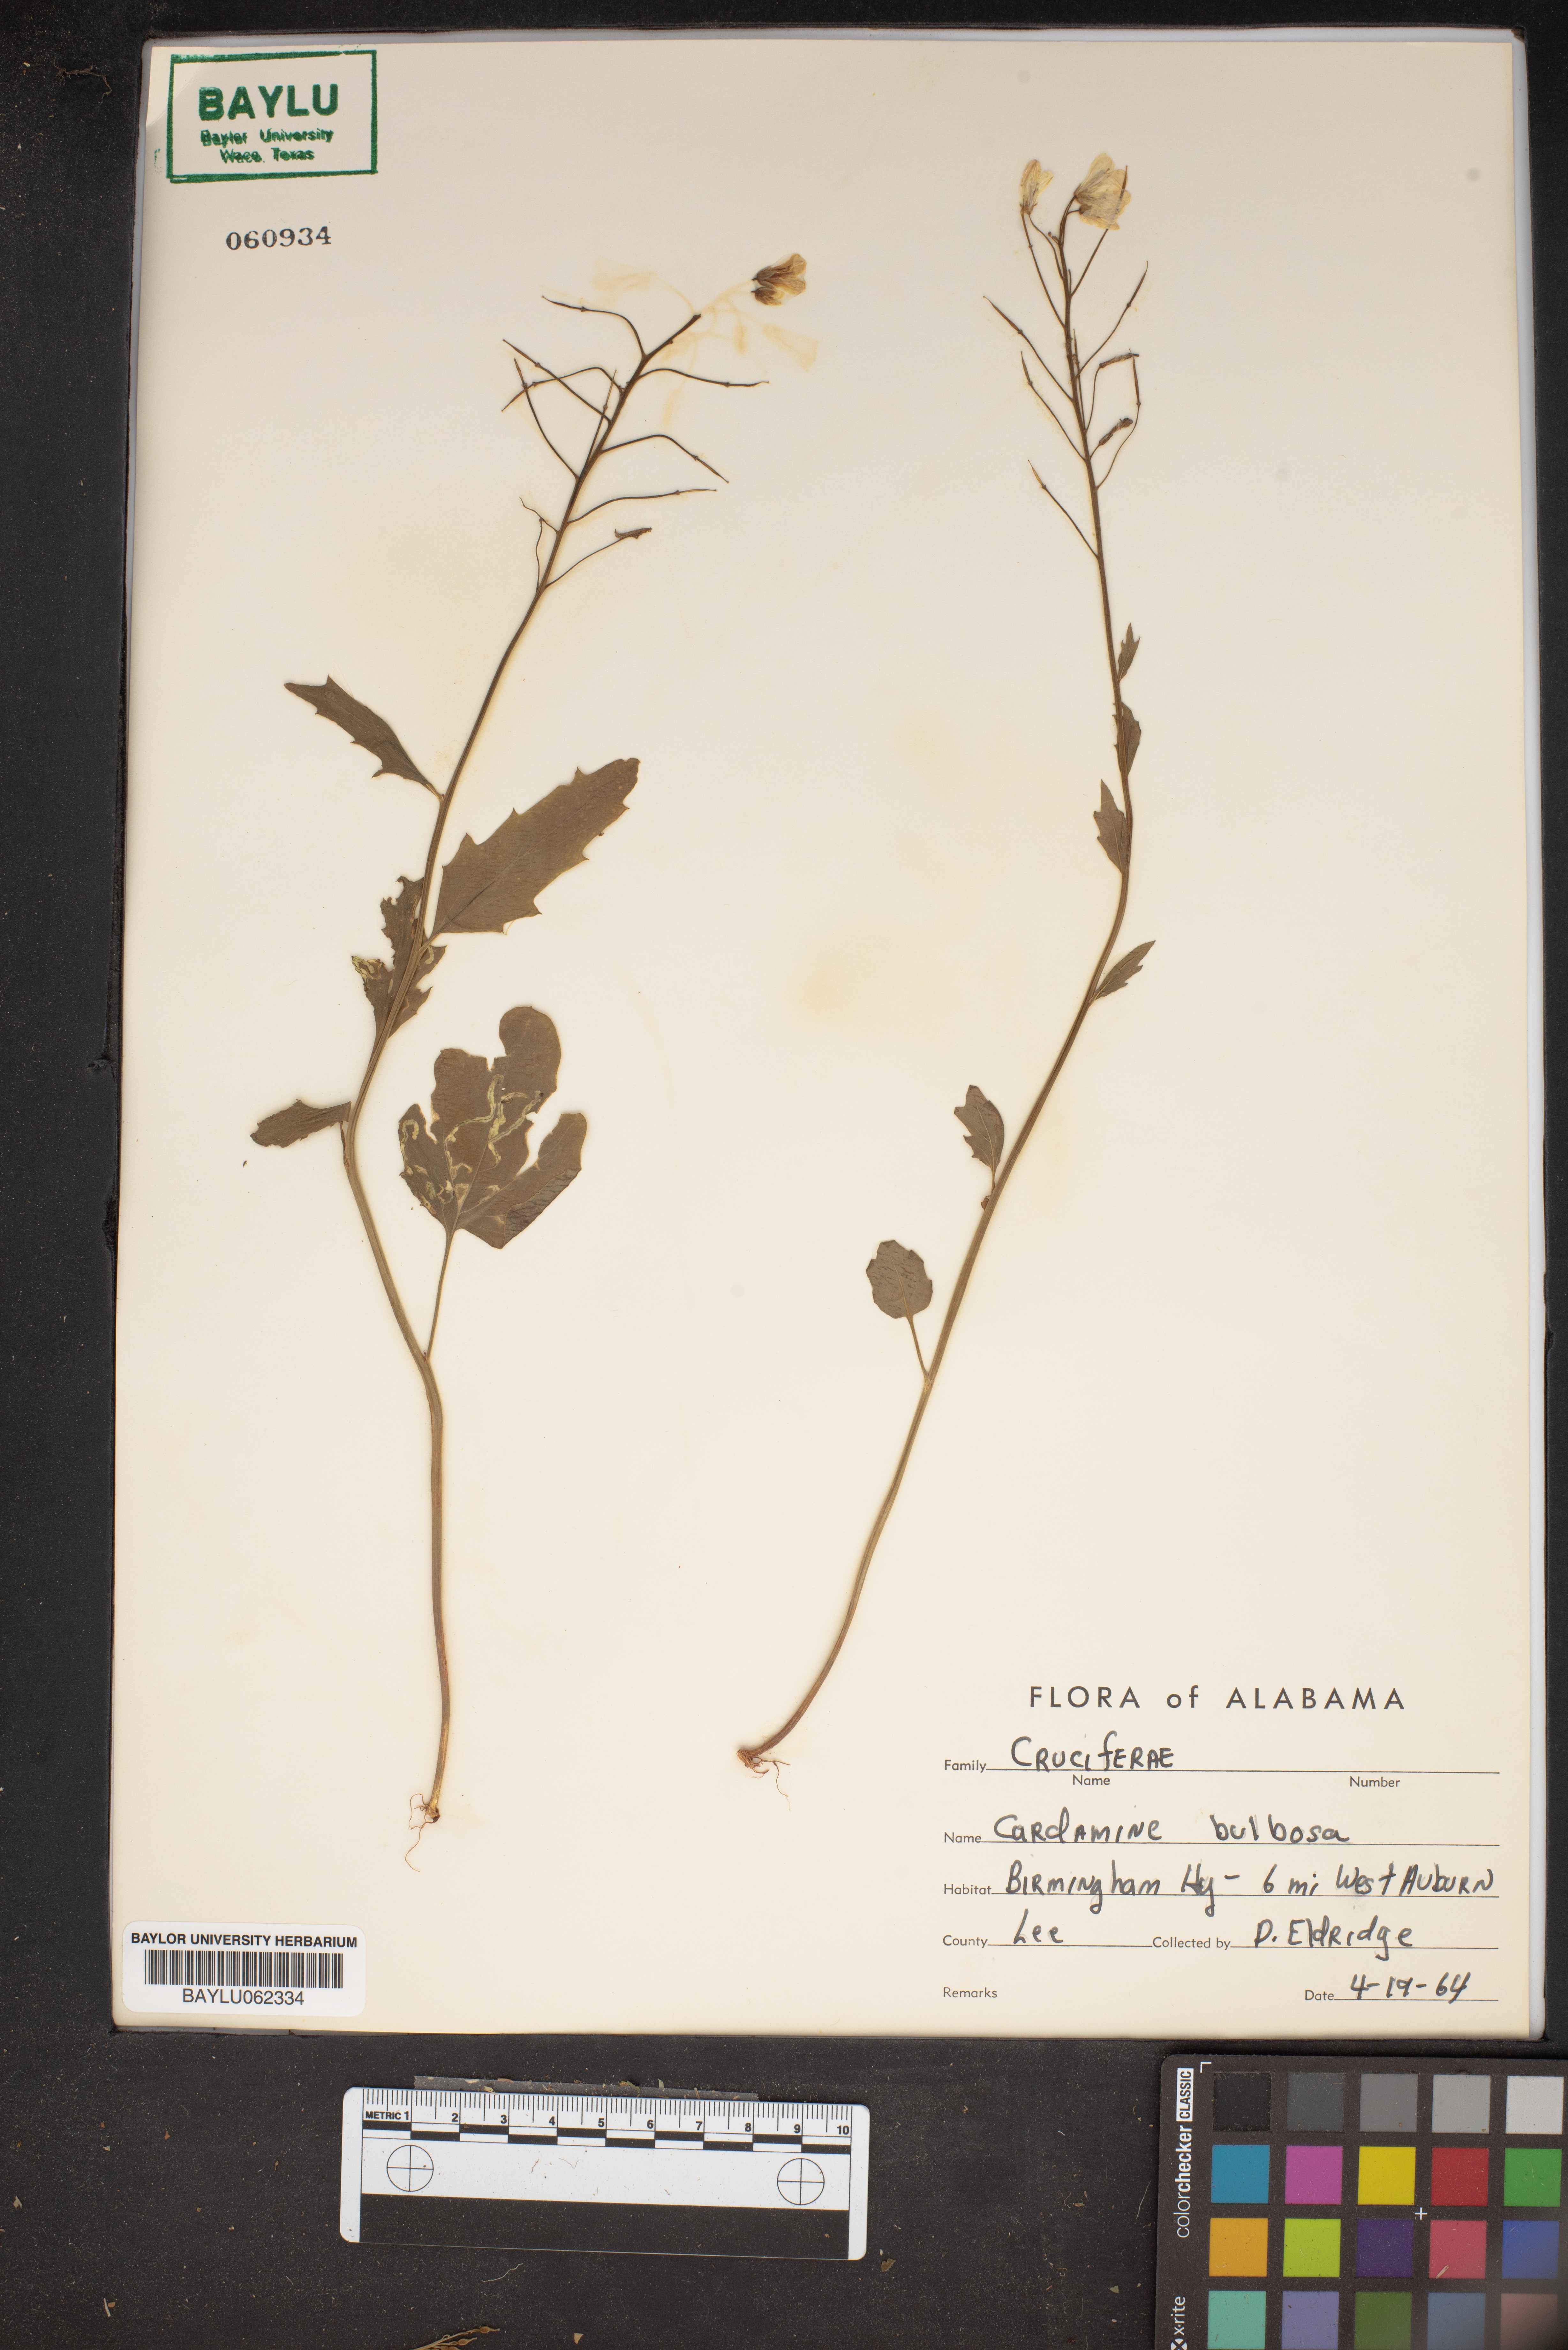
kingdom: Plantae
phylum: Tracheophyta
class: Magnoliopsida
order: Brassicales
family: Brassicaceae
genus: Cardamine
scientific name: Cardamine bulbosa
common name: Spring cress
